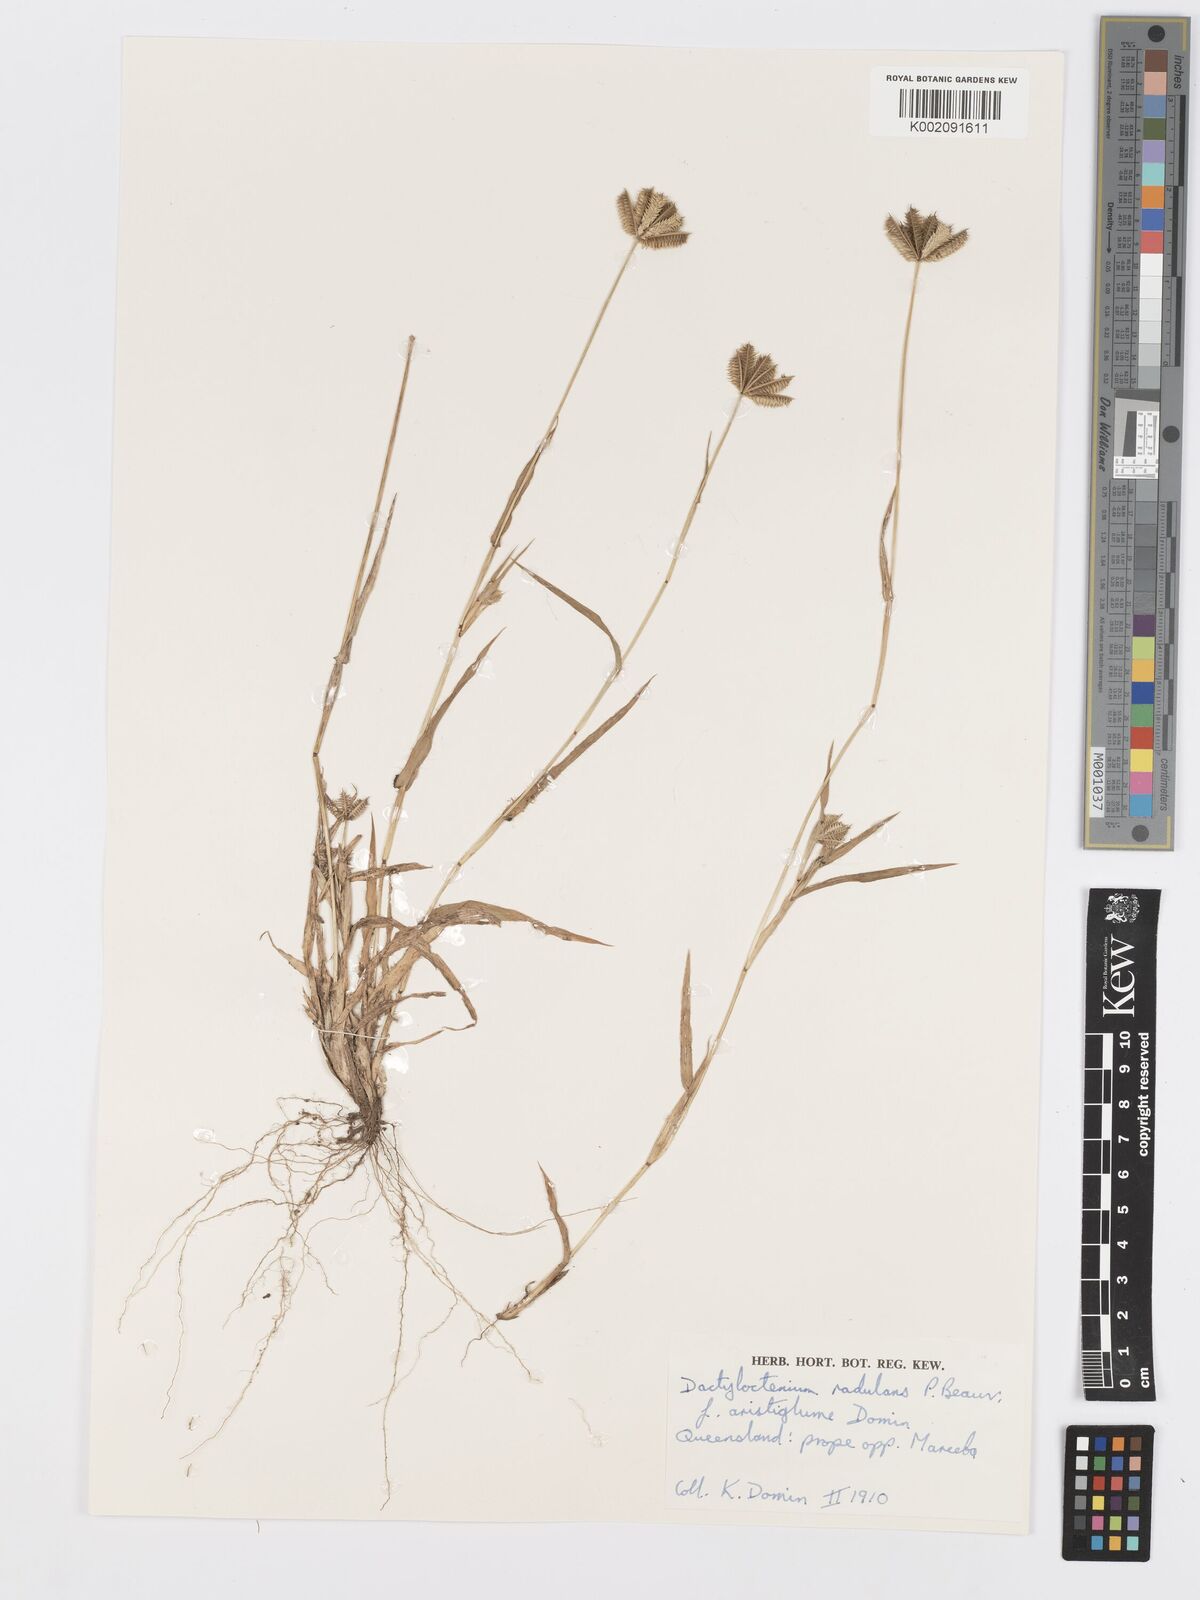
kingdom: Plantae
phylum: Tracheophyta
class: Liliopsida
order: Poales
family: Poaceae
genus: Dactyloctenium
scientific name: Dactyloctenium radulans
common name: Button-grass
